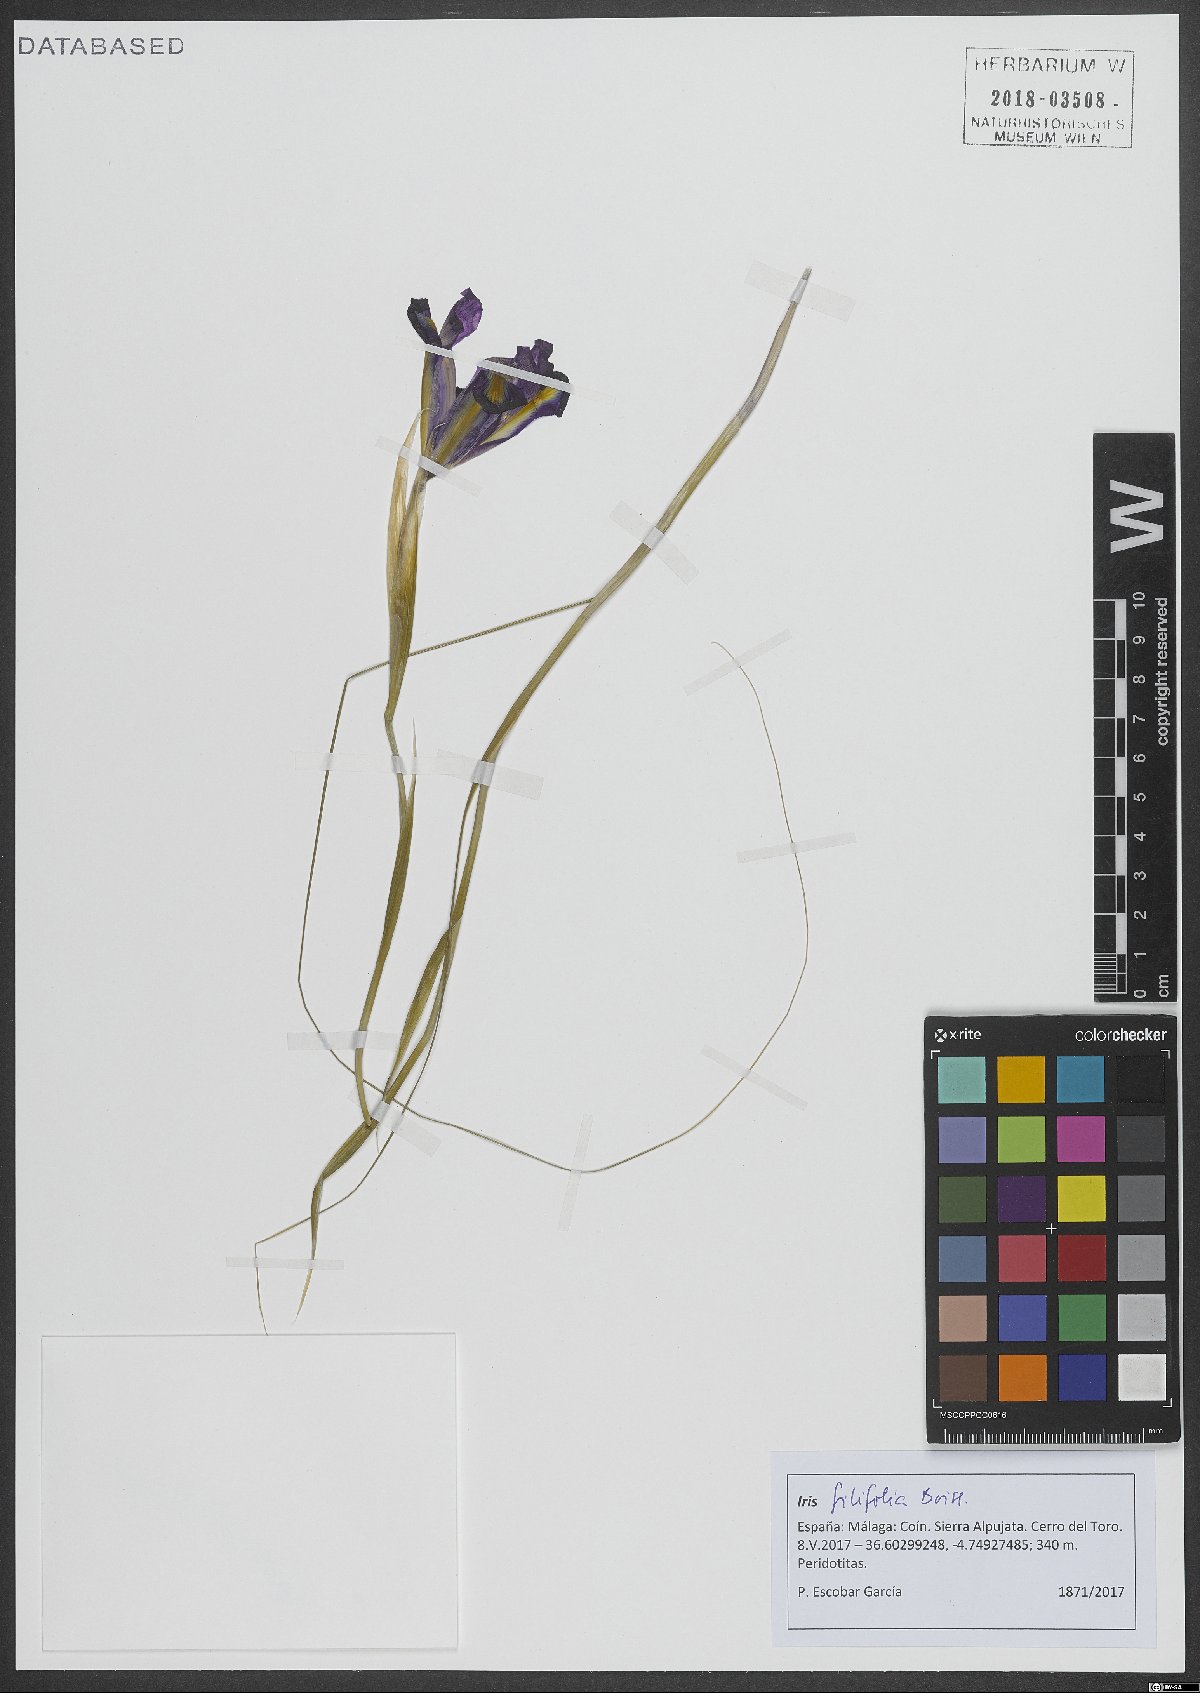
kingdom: Plantae
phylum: Tracheophyta
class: Liliopsida
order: Asparagales
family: Iridaceae
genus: Iris
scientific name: Iris longiscapa
